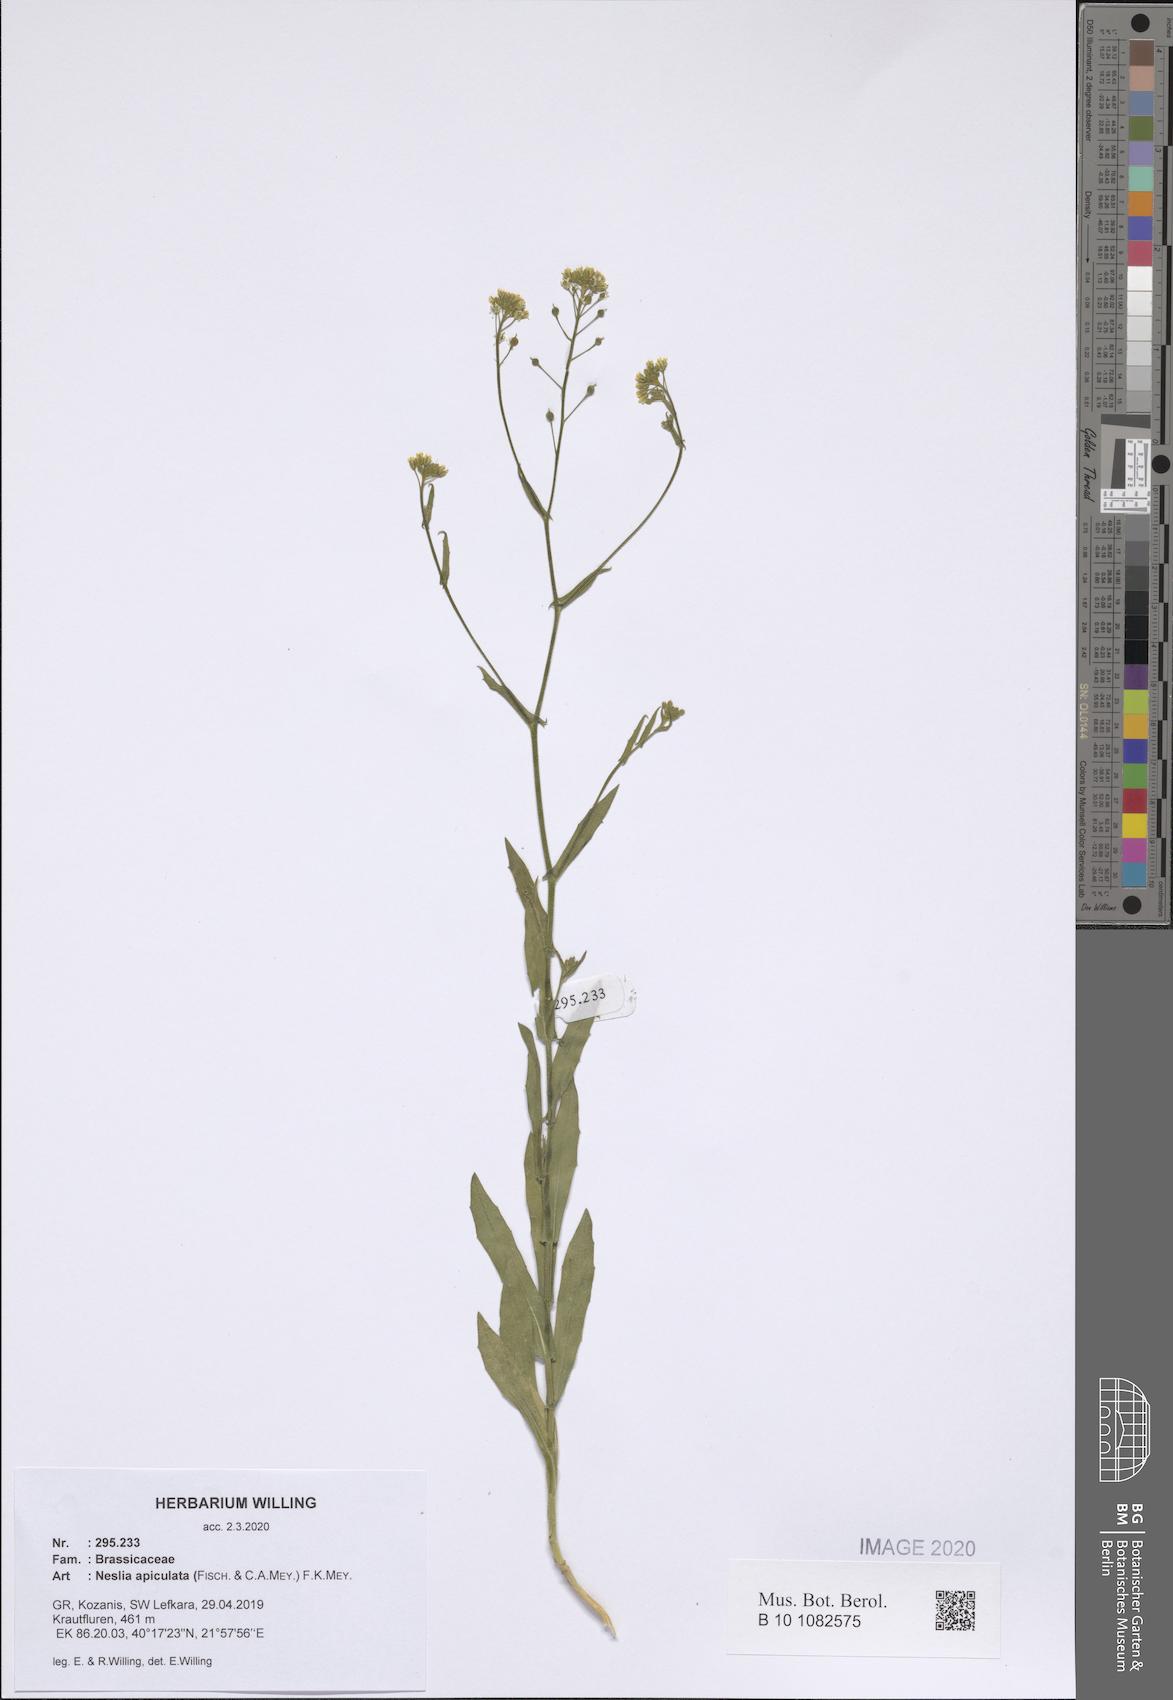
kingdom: Plantae
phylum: Tracheophyta
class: Magnoliopsida
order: Brassicales
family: Brassicaceae
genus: Neslia
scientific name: Neslia paniculata
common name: Ball mustard
